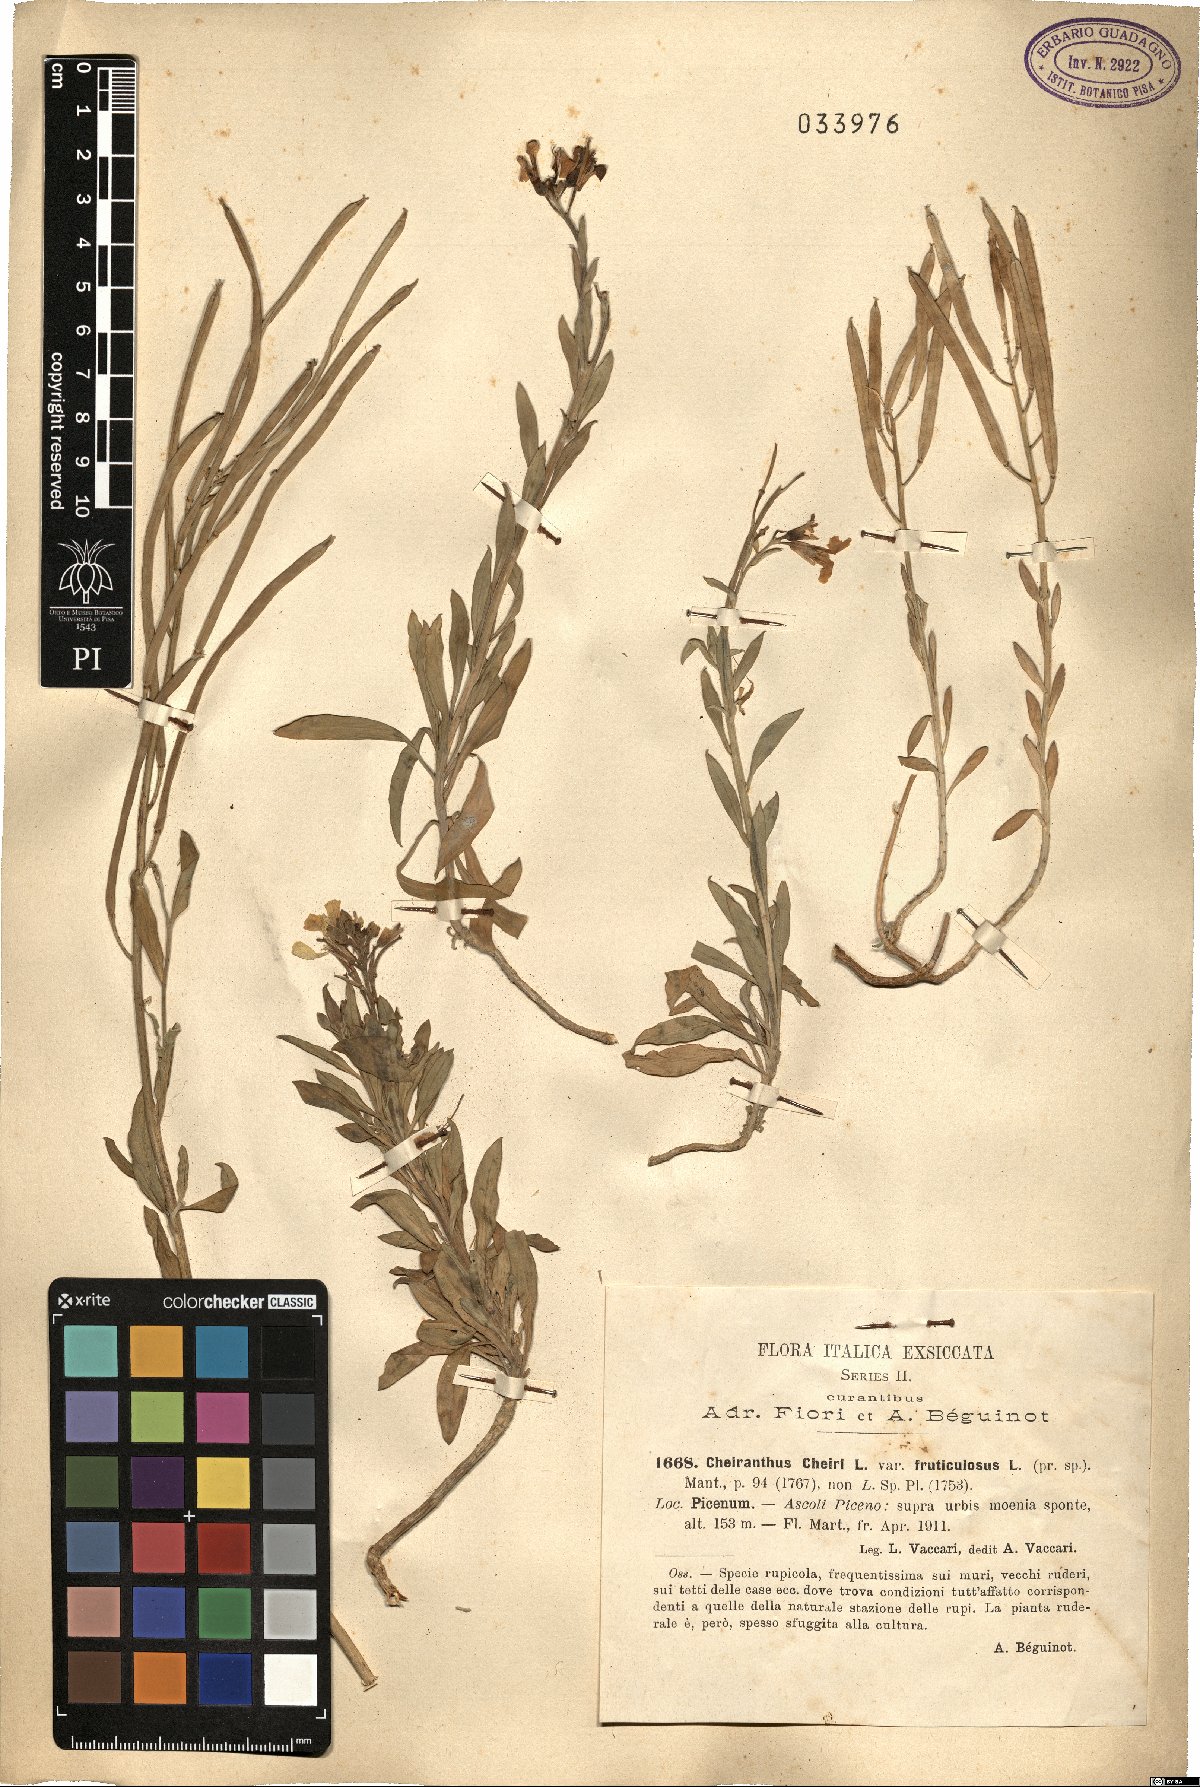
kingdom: Plantae
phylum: Tracheophyta
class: Magnoliopsida
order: Brassicales
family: Brassicaceae
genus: Erysimum
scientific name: Erysimum cheiri
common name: Wallflower
